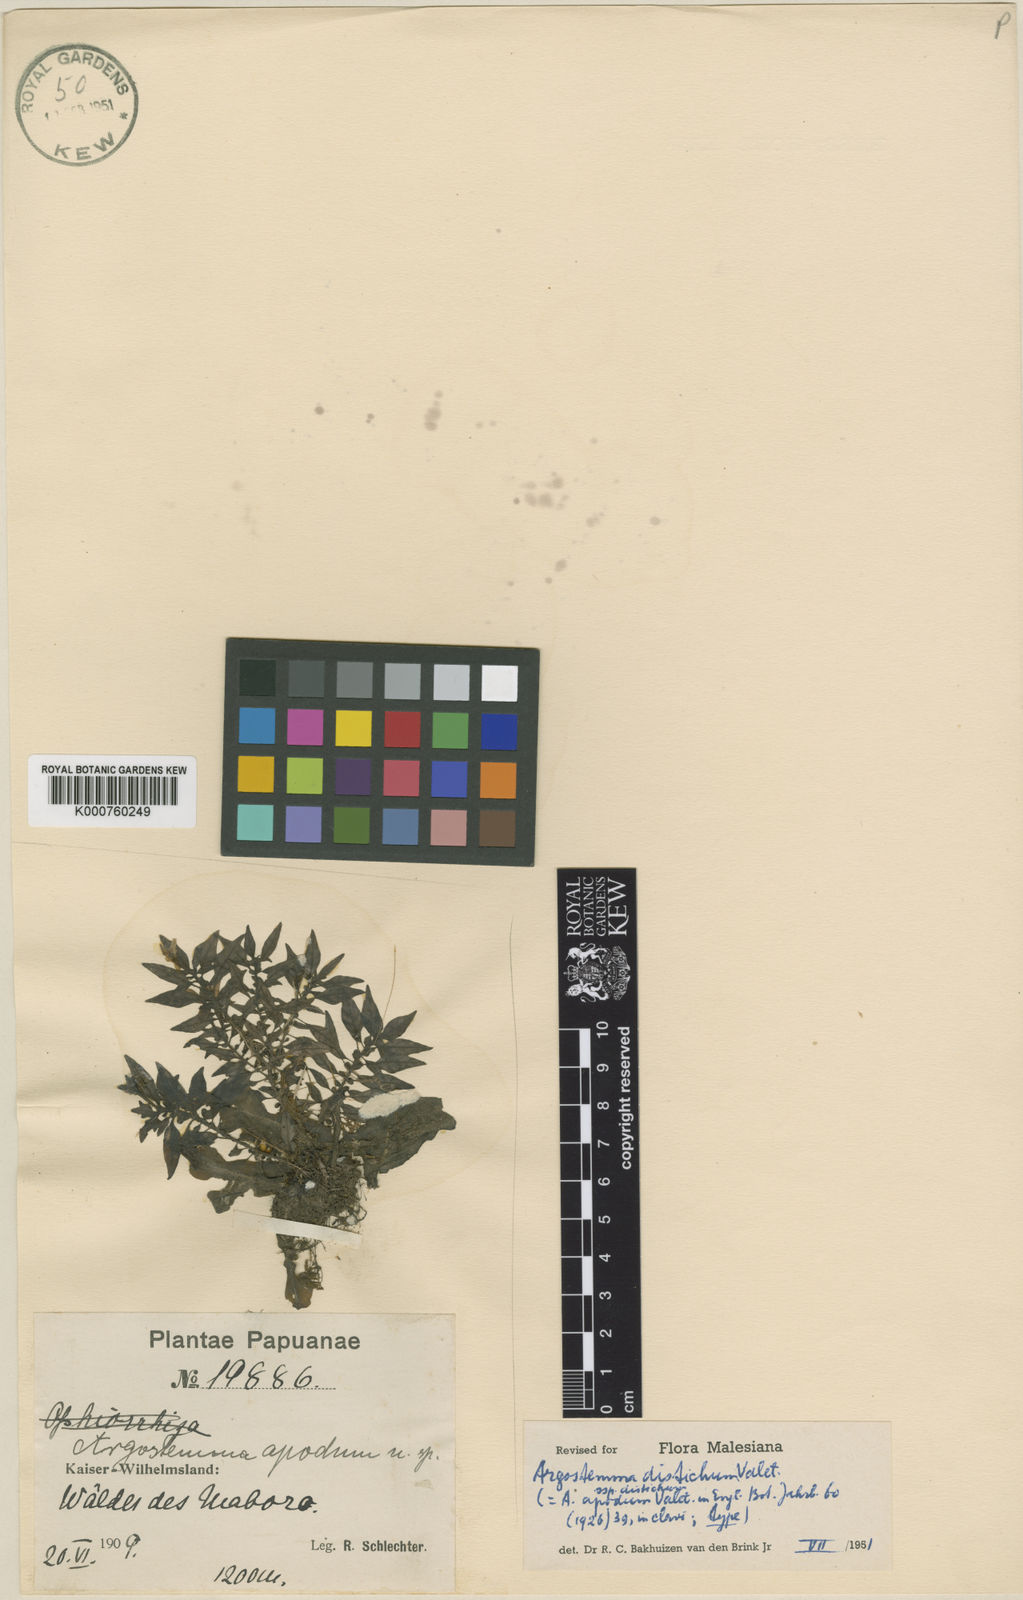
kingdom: Plantae
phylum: Tracheophyta
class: Magnoliopsida
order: Gentianales
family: Rubiaceae
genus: Argostemma
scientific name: Argostemma distichum
